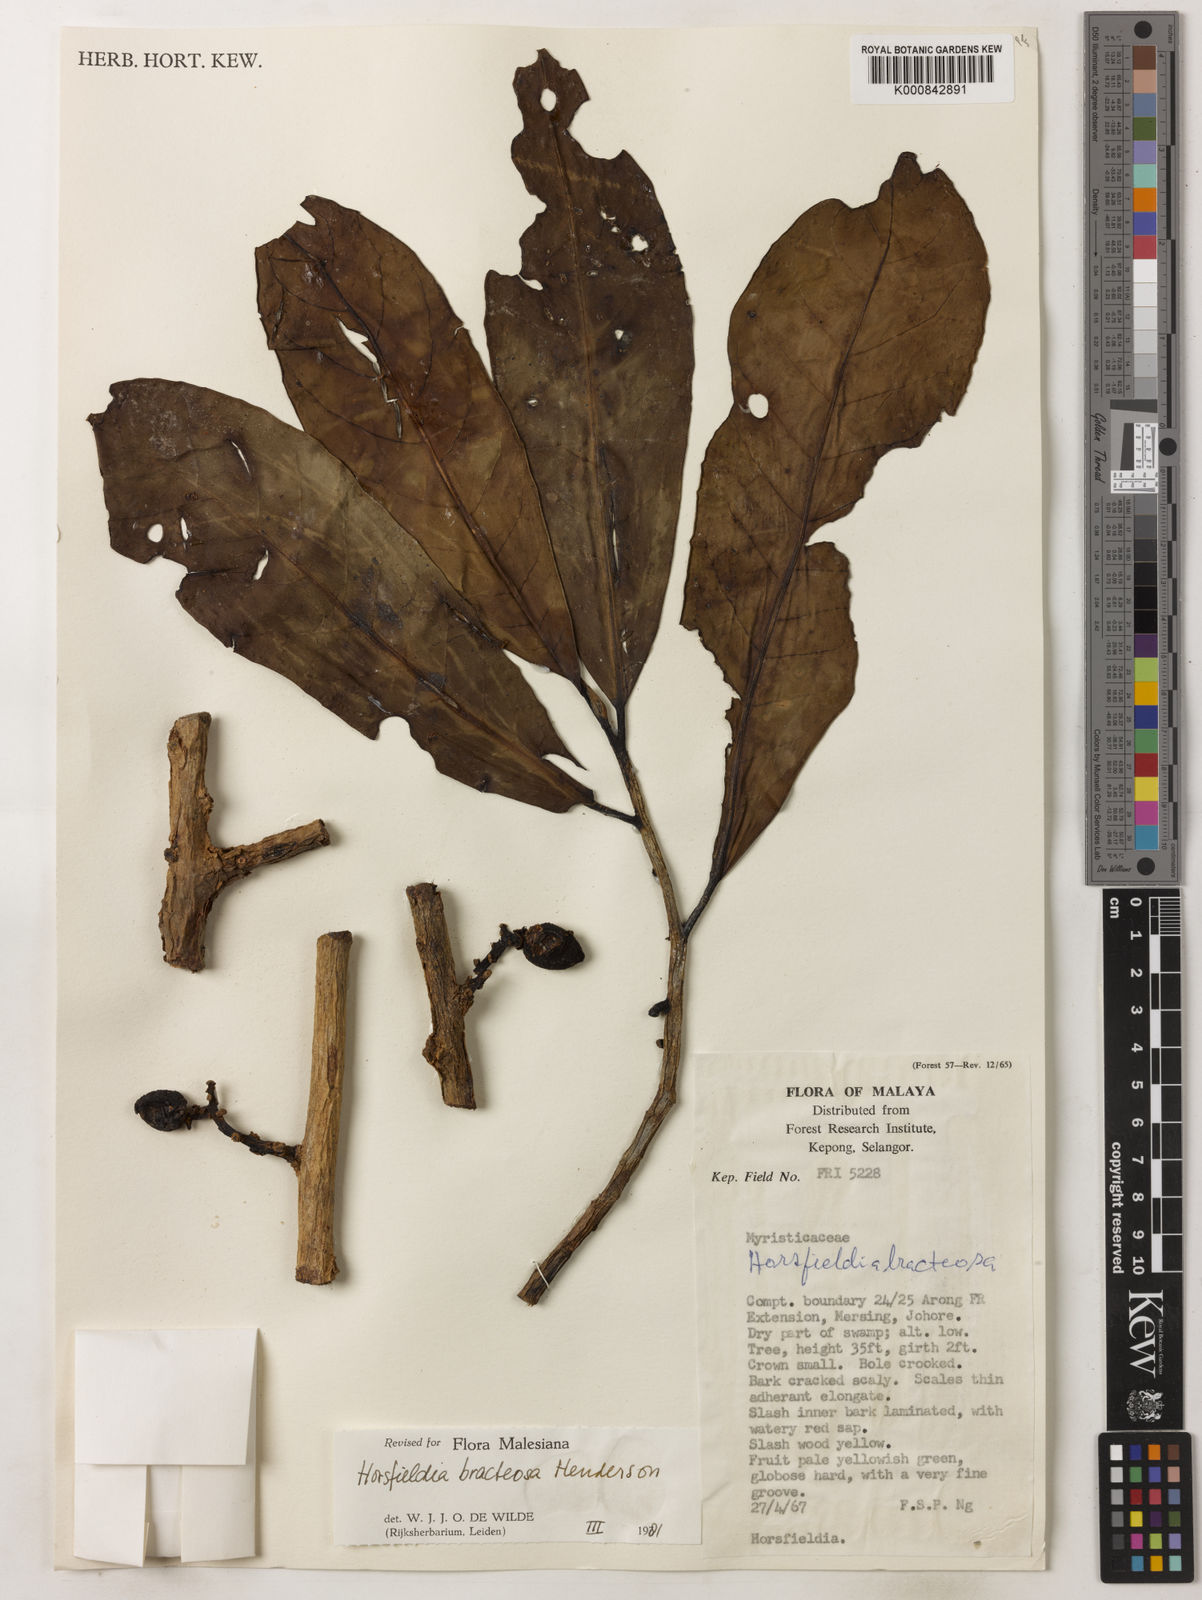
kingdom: Plantae
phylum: Tracheophyta
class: Magnoliopsida
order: Magnoliales
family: Myristicaceae
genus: Horsfieldia
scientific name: Horsfieldia sucosa
